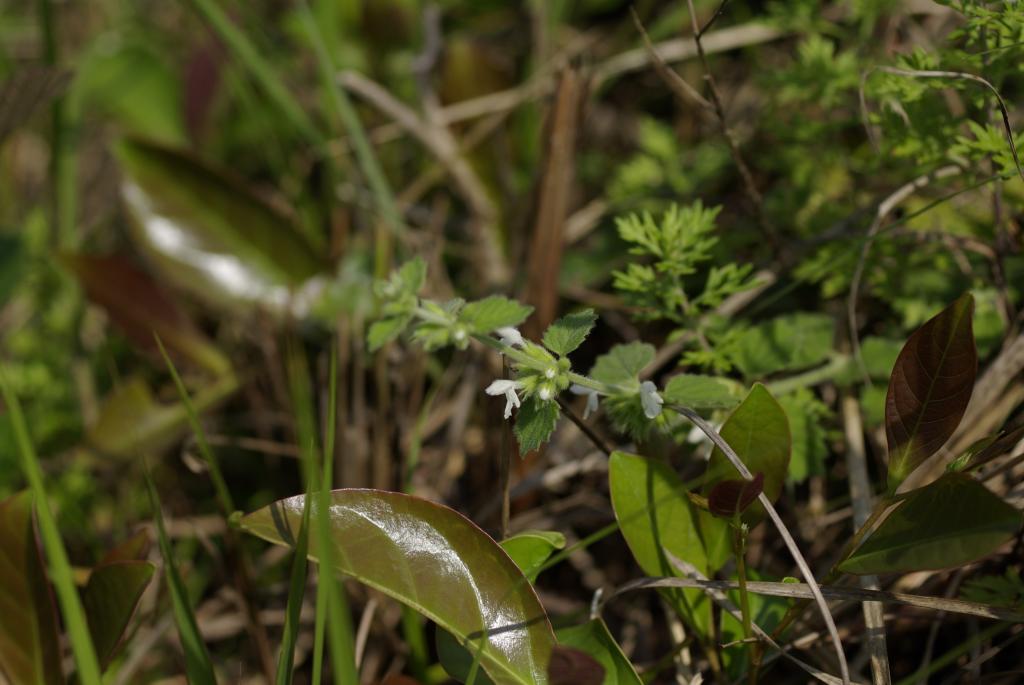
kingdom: Plantae
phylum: Tracheophyta
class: Magnoliopsida
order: Lamiales
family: Lamiaceae
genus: Leucas
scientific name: Leucas chinensis
